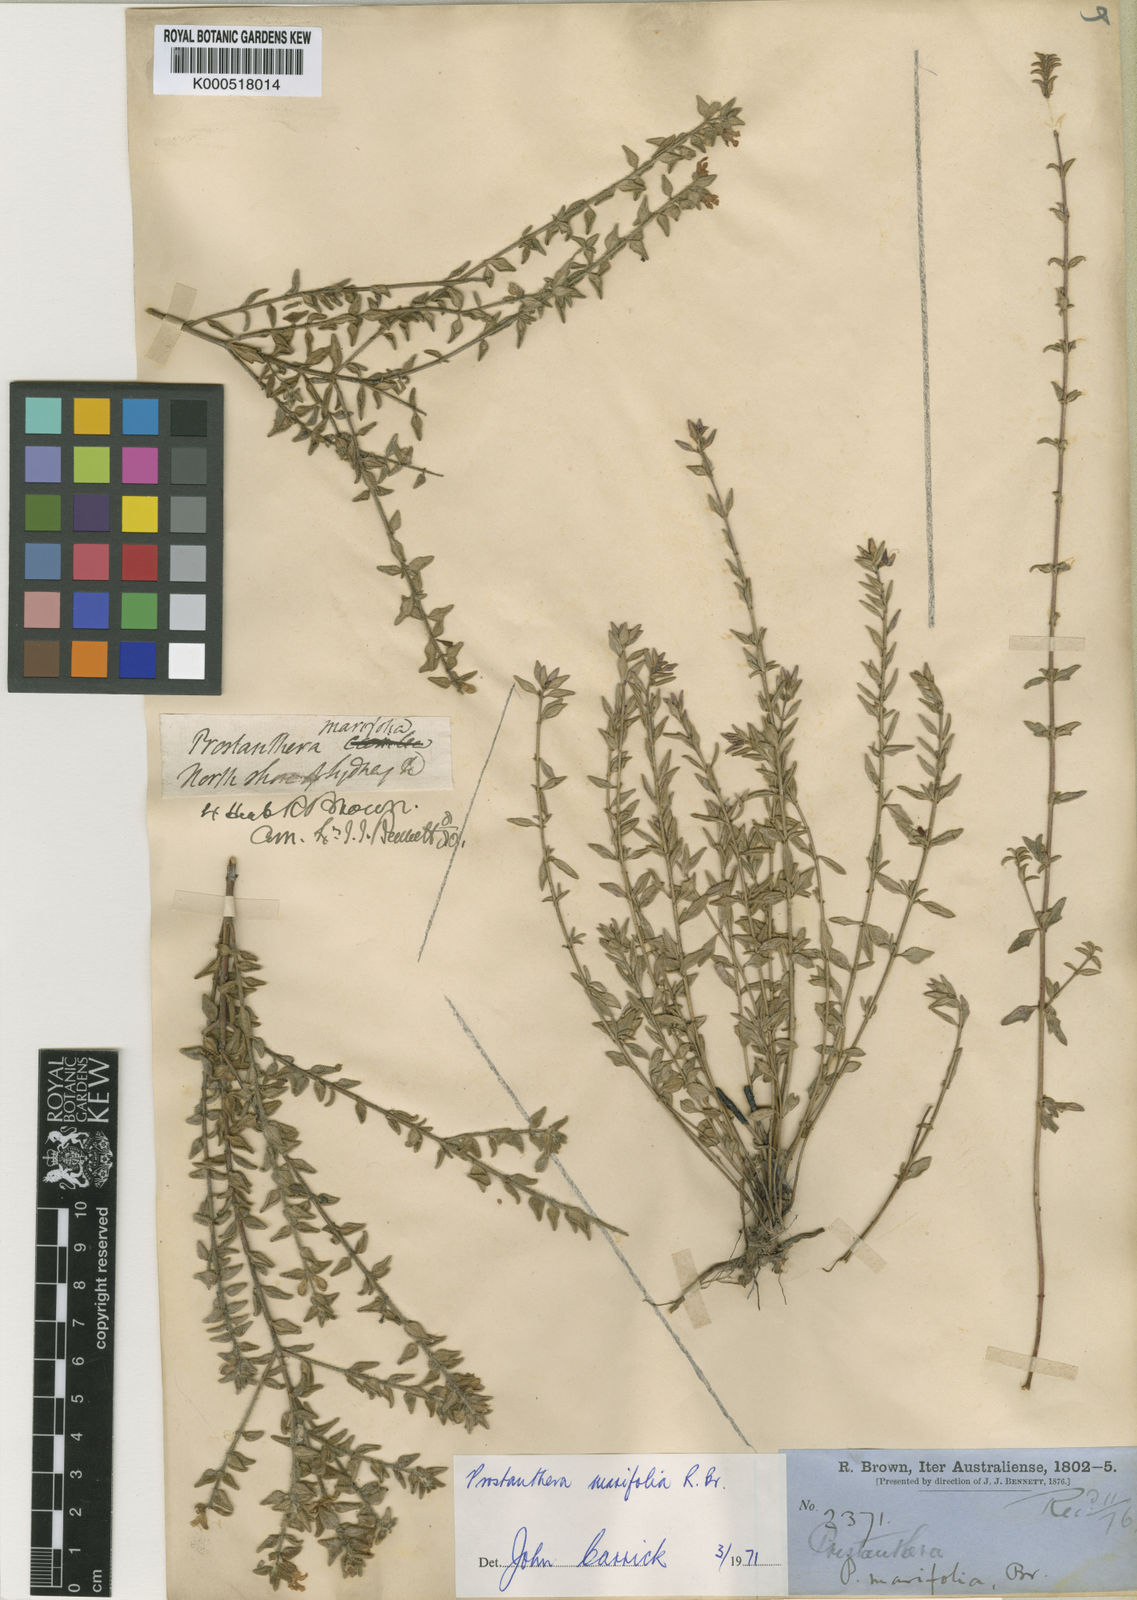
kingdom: Plantae
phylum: Tracheophyta
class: Magnoliopsida
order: Lamiales
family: Lamiaceae
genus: Prostanthera
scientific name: Prostanthera marifolia
